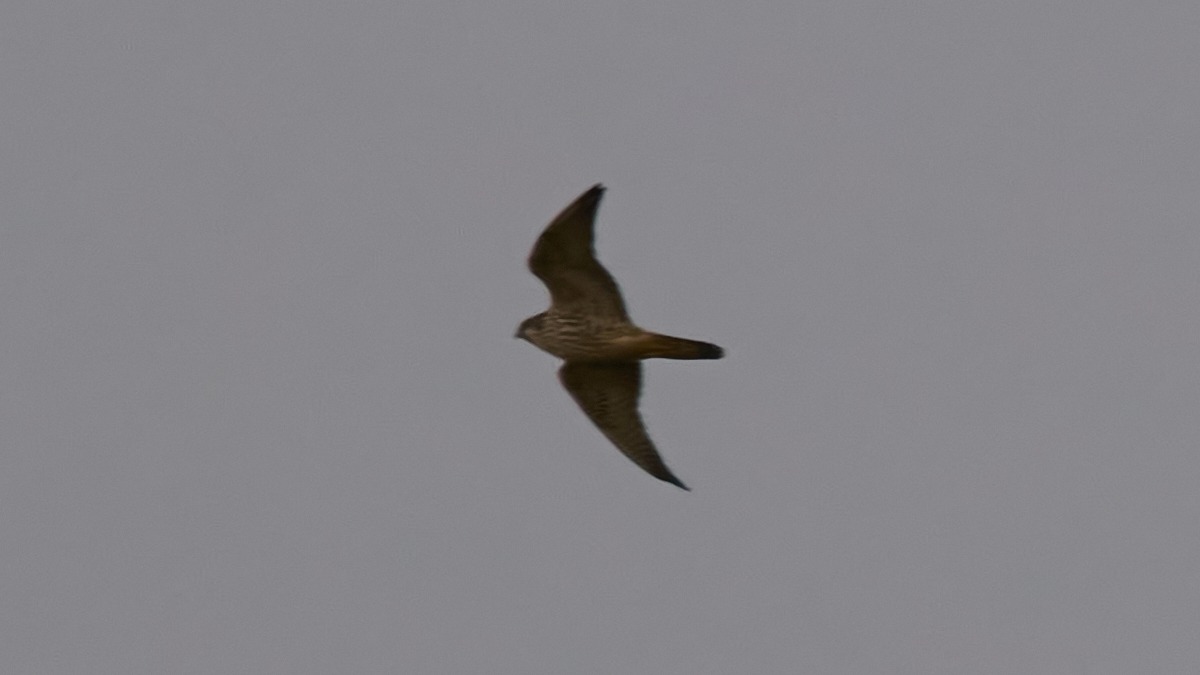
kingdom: Animalia
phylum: Chordata
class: Aves
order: Falconiformes
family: Falconidae
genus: Falco
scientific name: Falco peregrinus
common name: Vandrefalk
